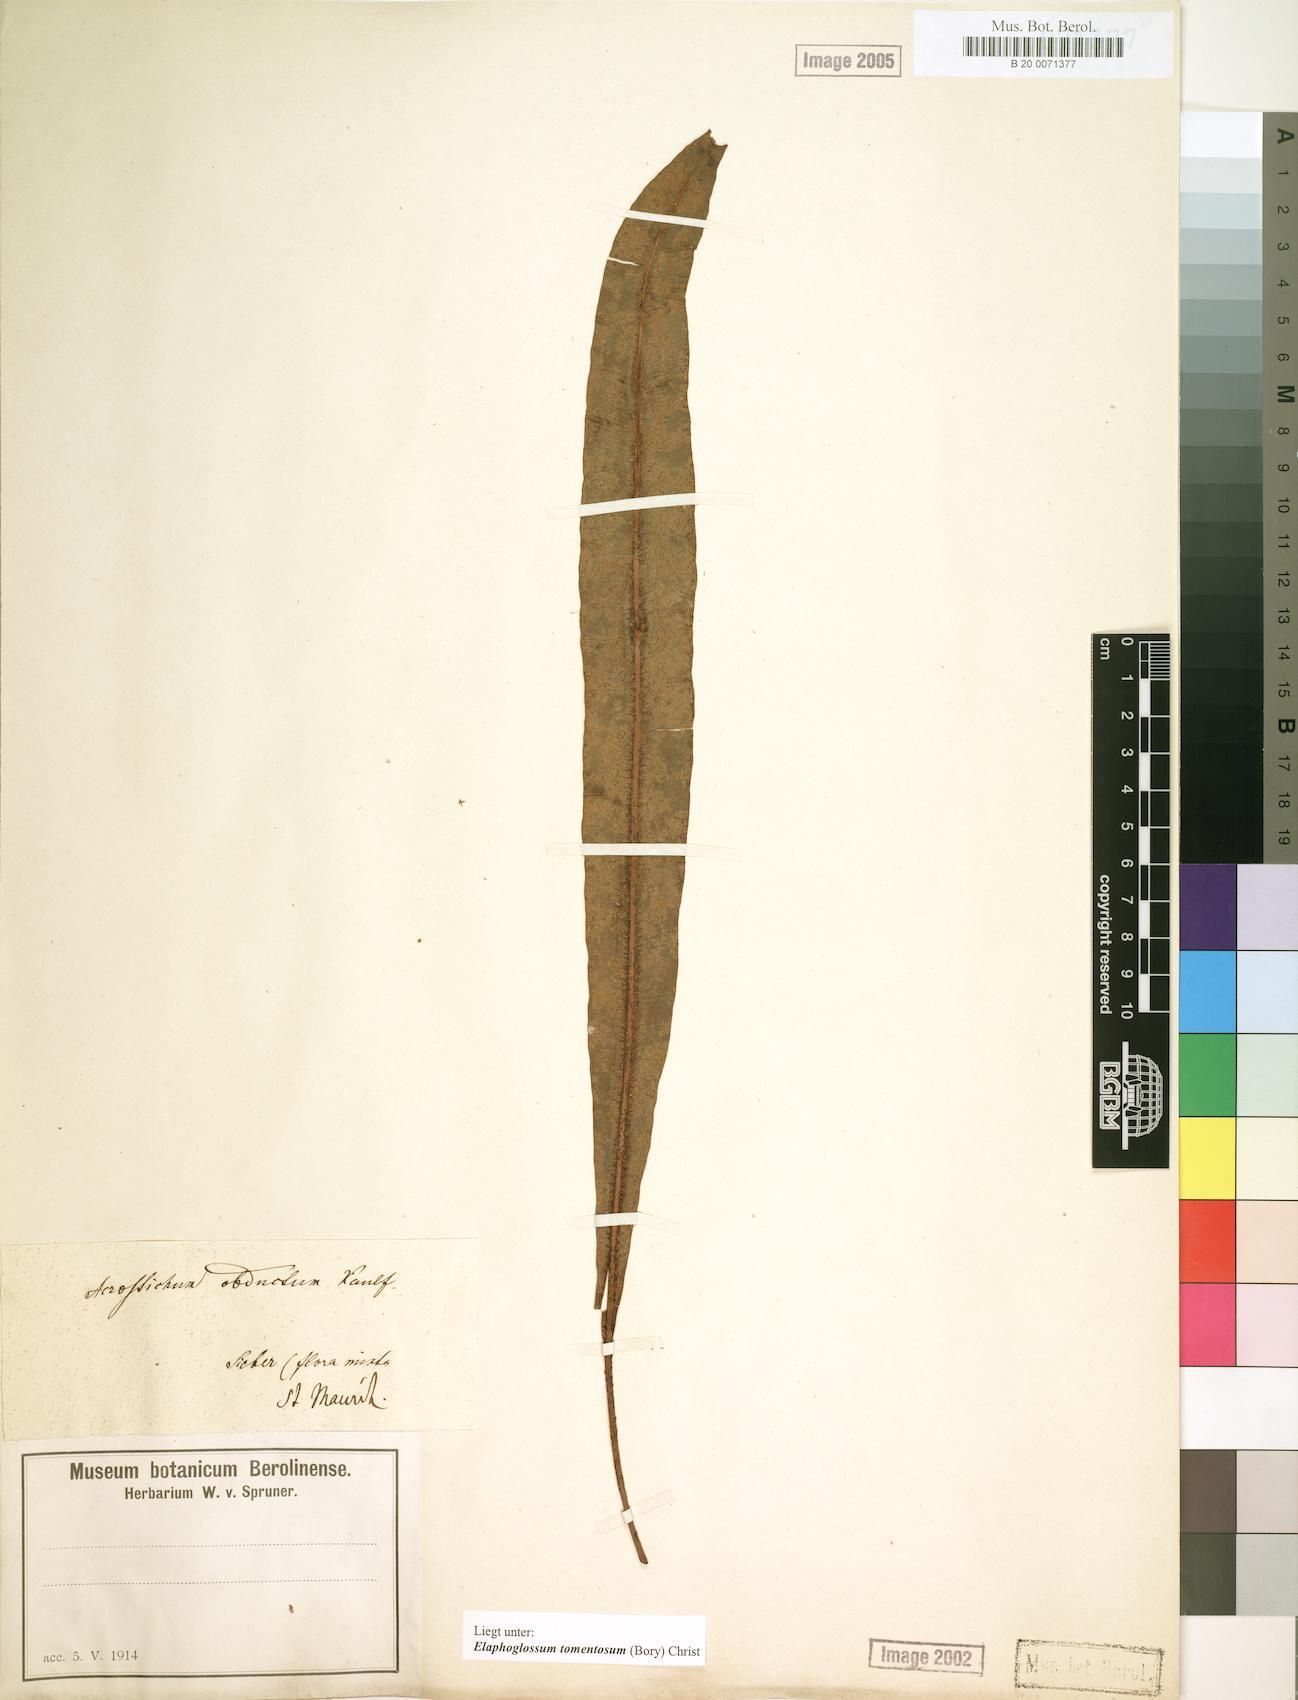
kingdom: Plantae
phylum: Tracheophyta
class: Polypodiopsida
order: Polypodiales
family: Dryopteridaceae
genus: Elaphoglossum
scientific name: Elaphoglossum tomentosum
